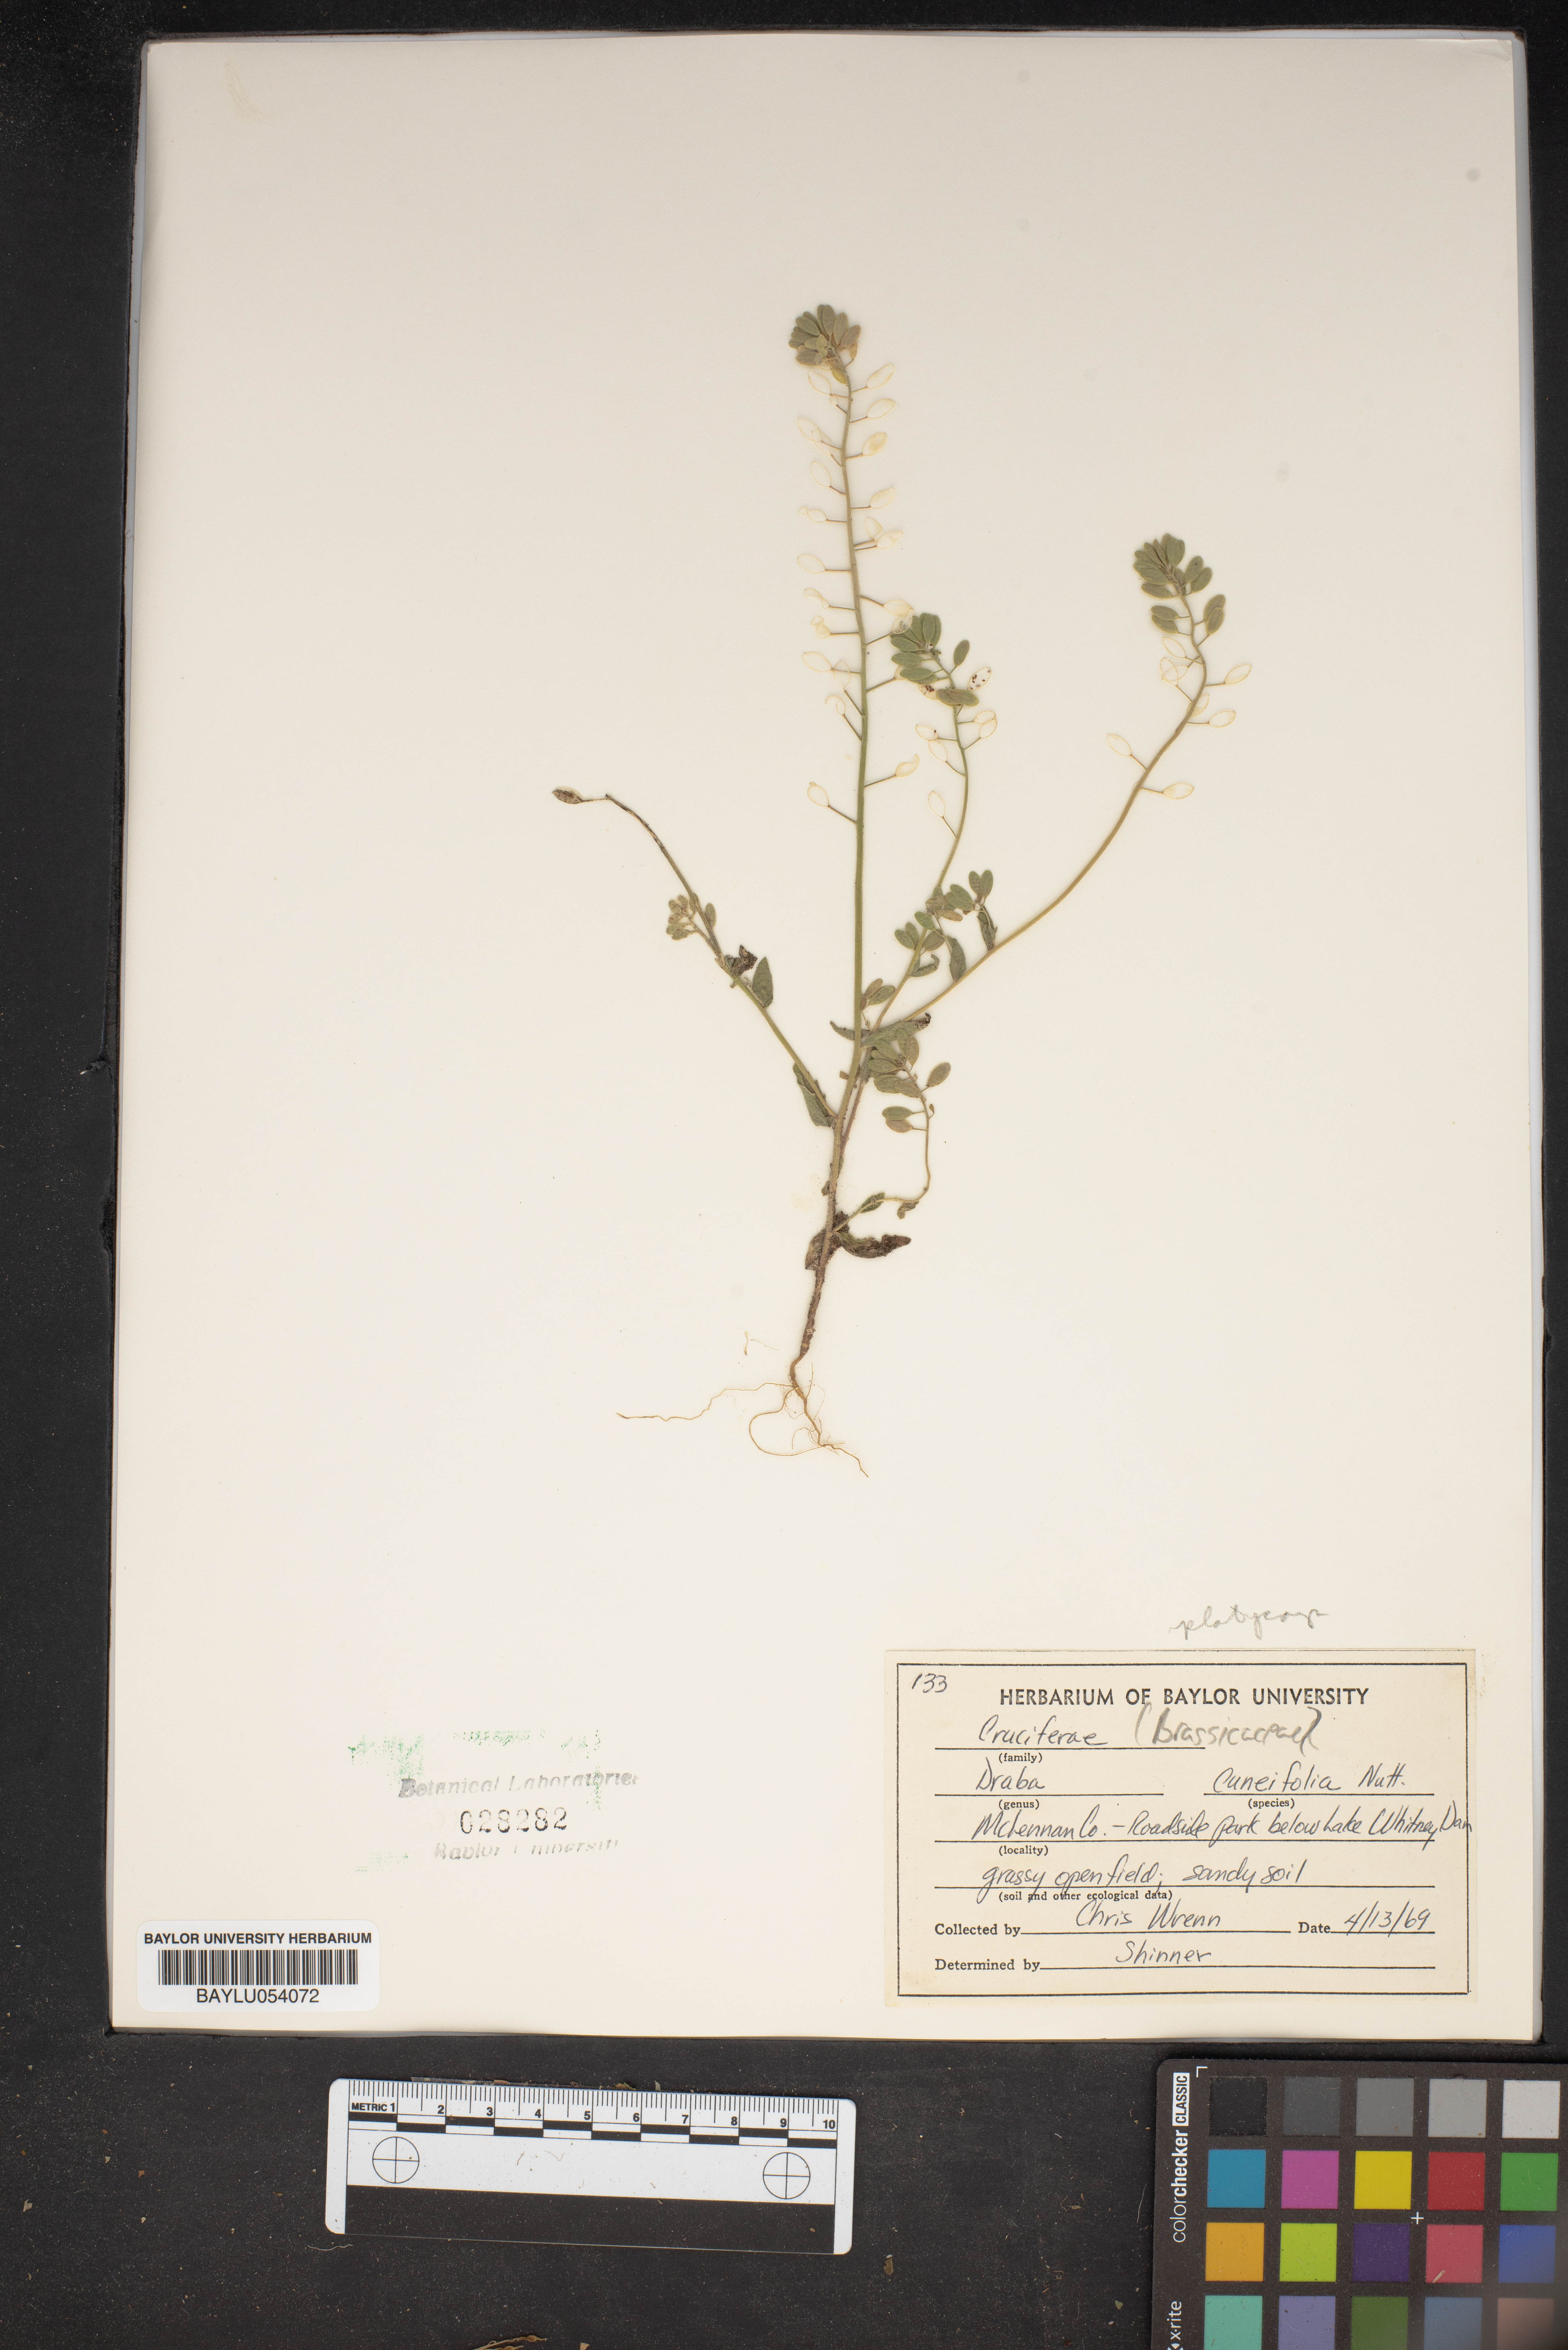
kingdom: Plantae
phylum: Tracheophyta
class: Magnoliopsida
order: Brassicales
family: Brassicaceae
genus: Tomostima
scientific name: Tomostima cuneifolia
